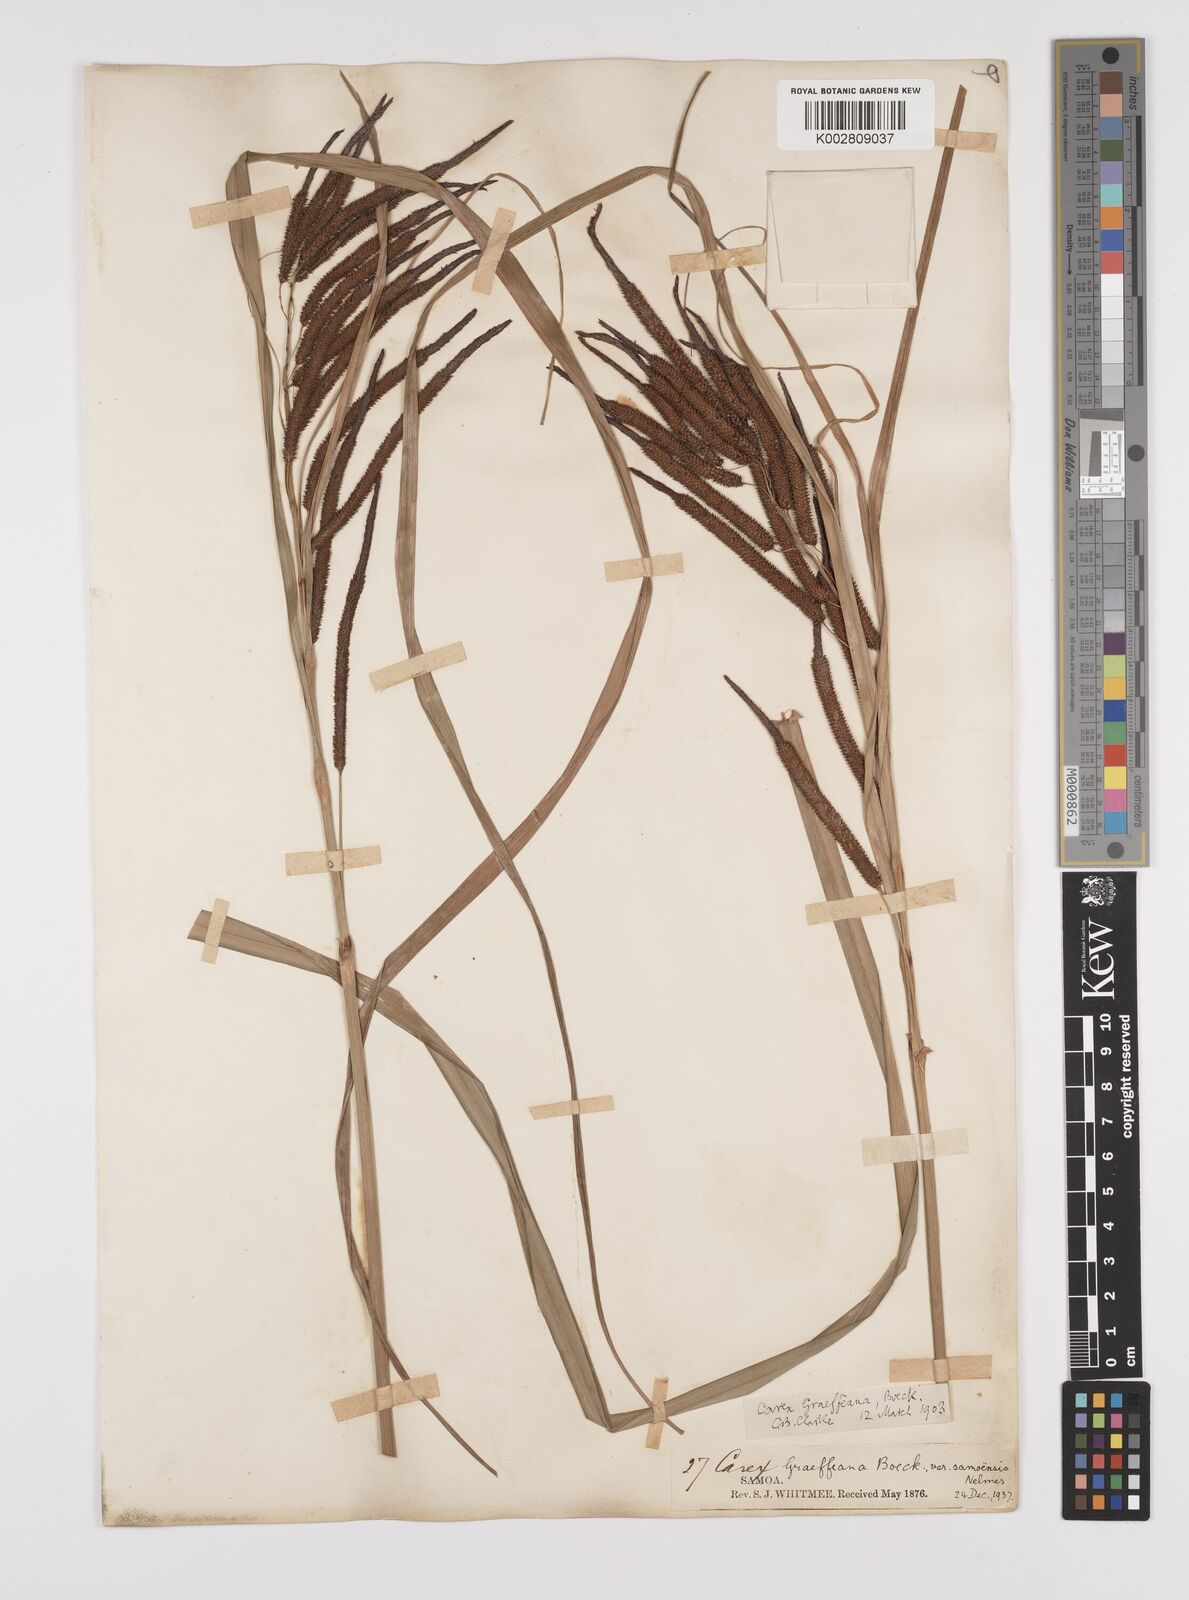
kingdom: Plantae
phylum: Tracheophyta
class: Liliopsida
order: Poales
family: Cyperaceae
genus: Carex
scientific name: Carex graeffeana
